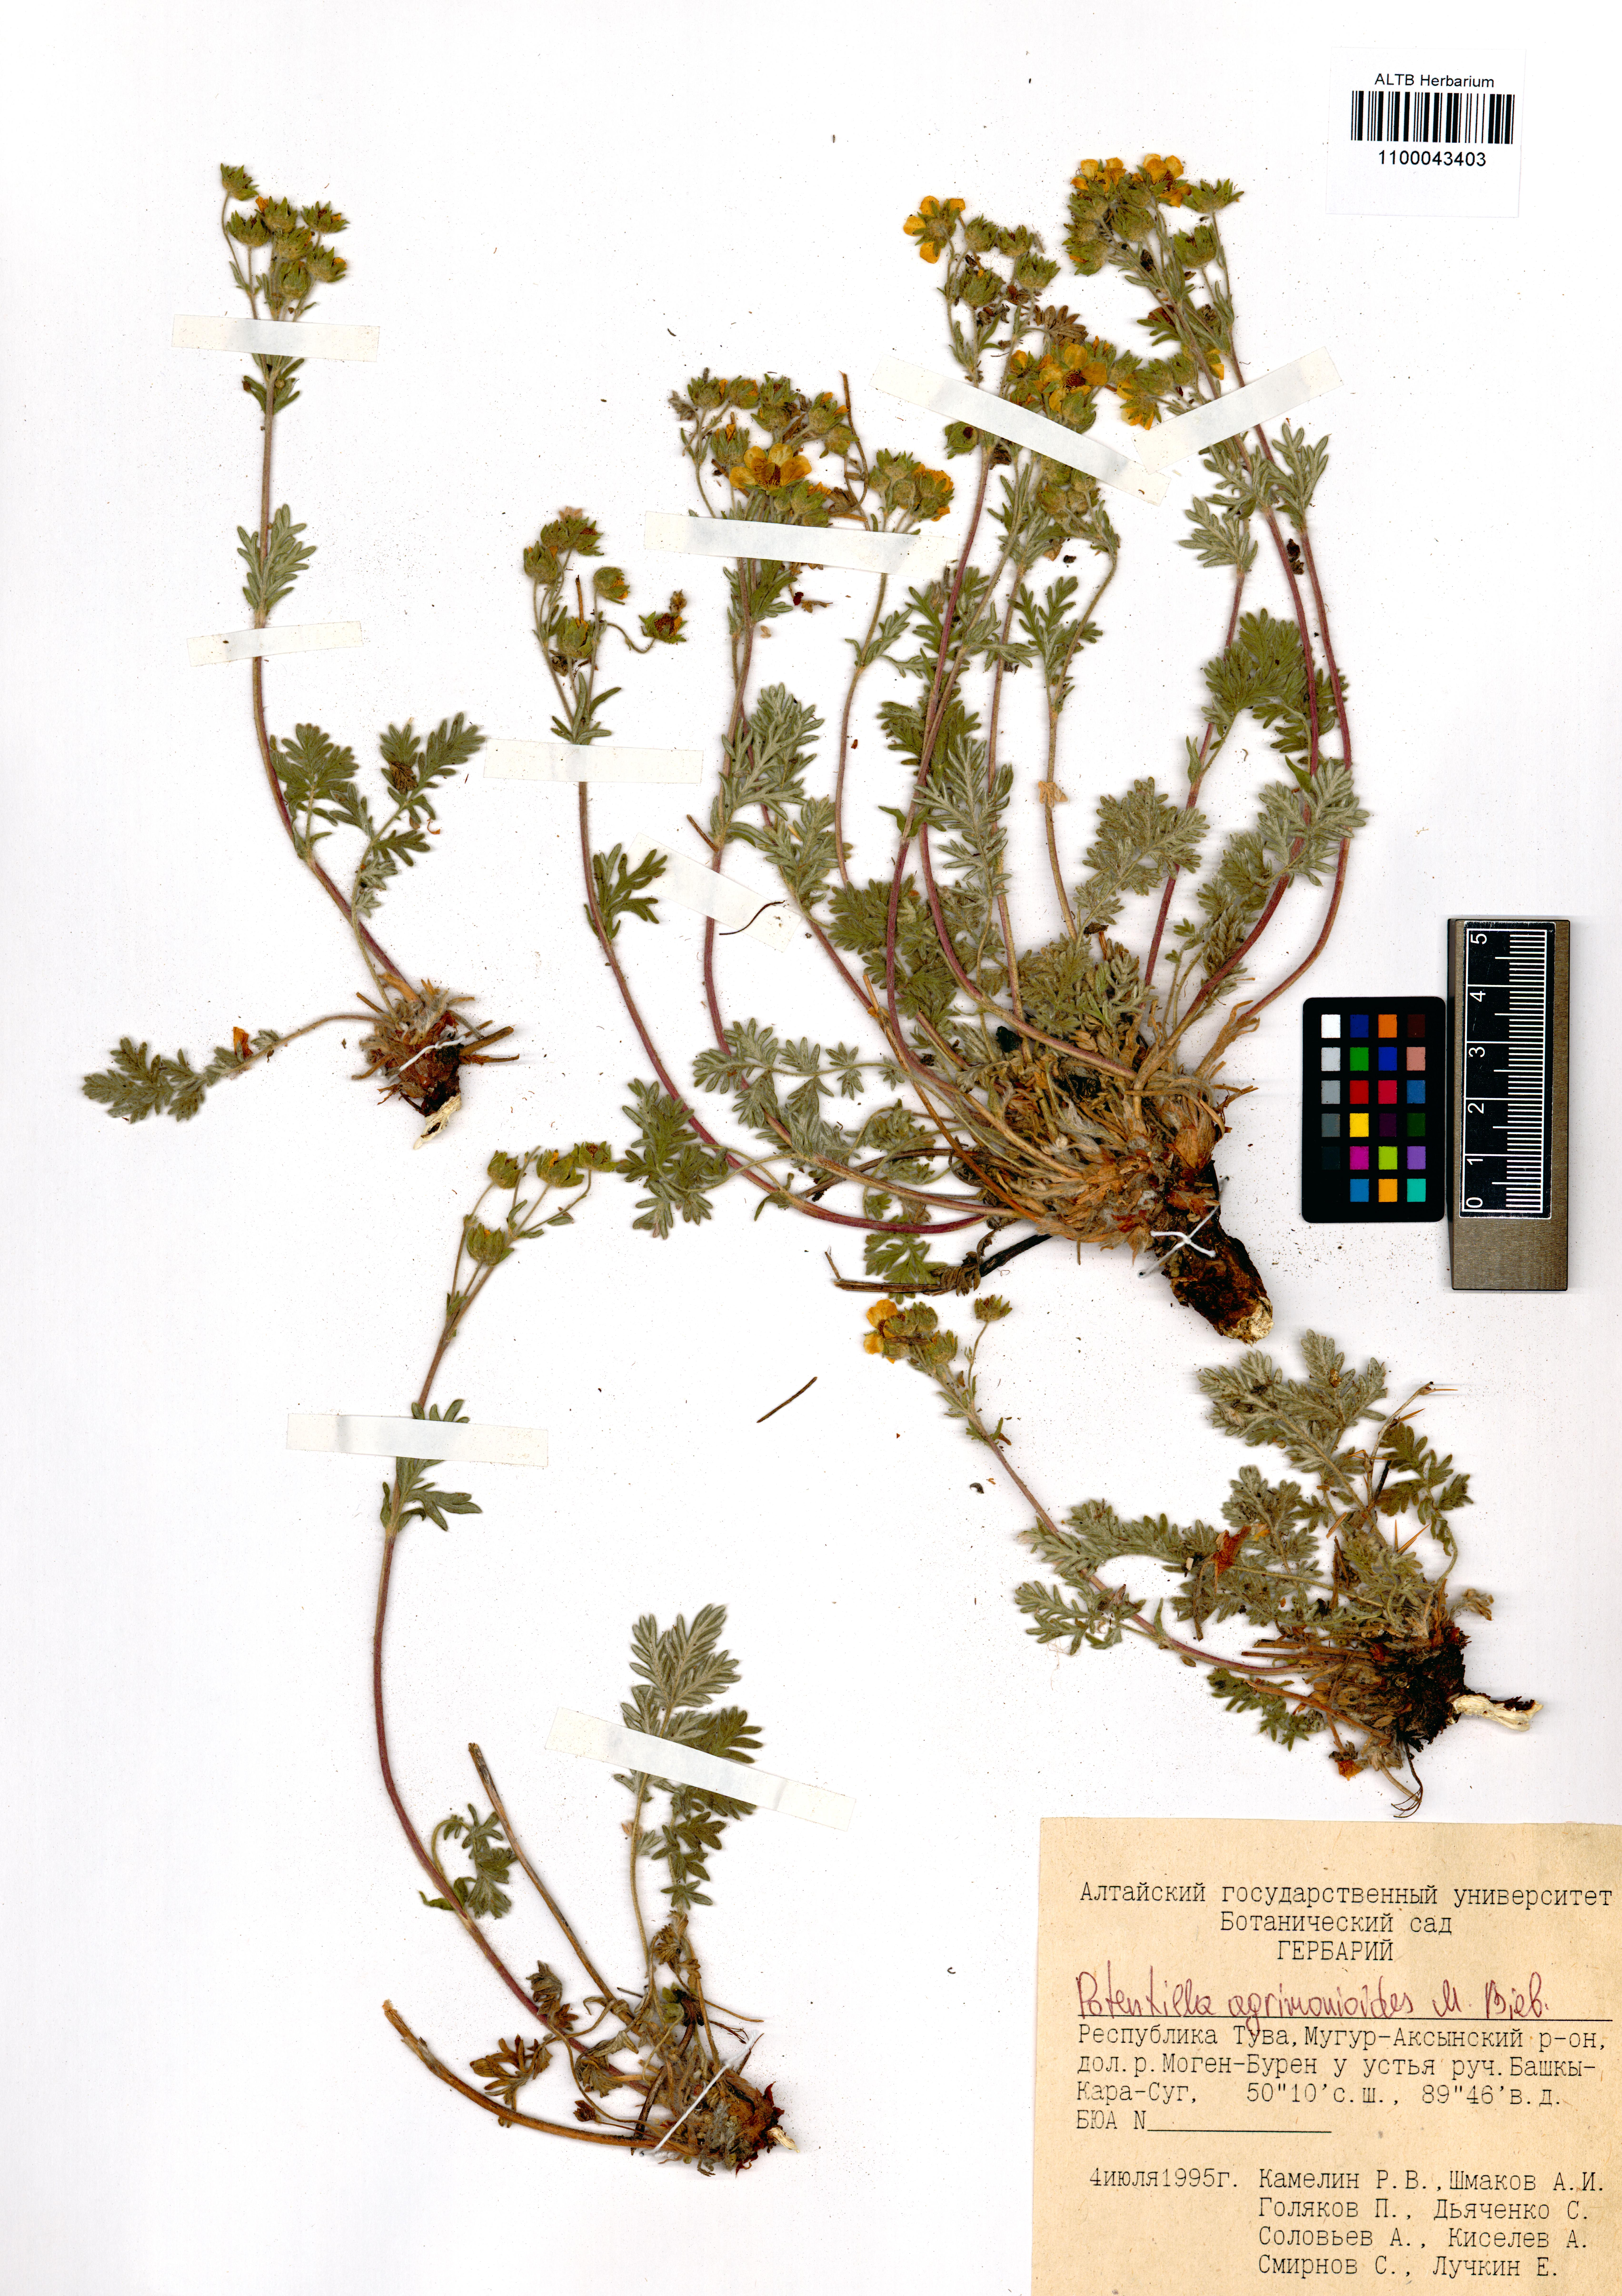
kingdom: Plantae
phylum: Tracheophyta
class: Magnoliopsida
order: Rosales
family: Rosaceae
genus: Potentilla
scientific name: Potentilla agrimonioides
